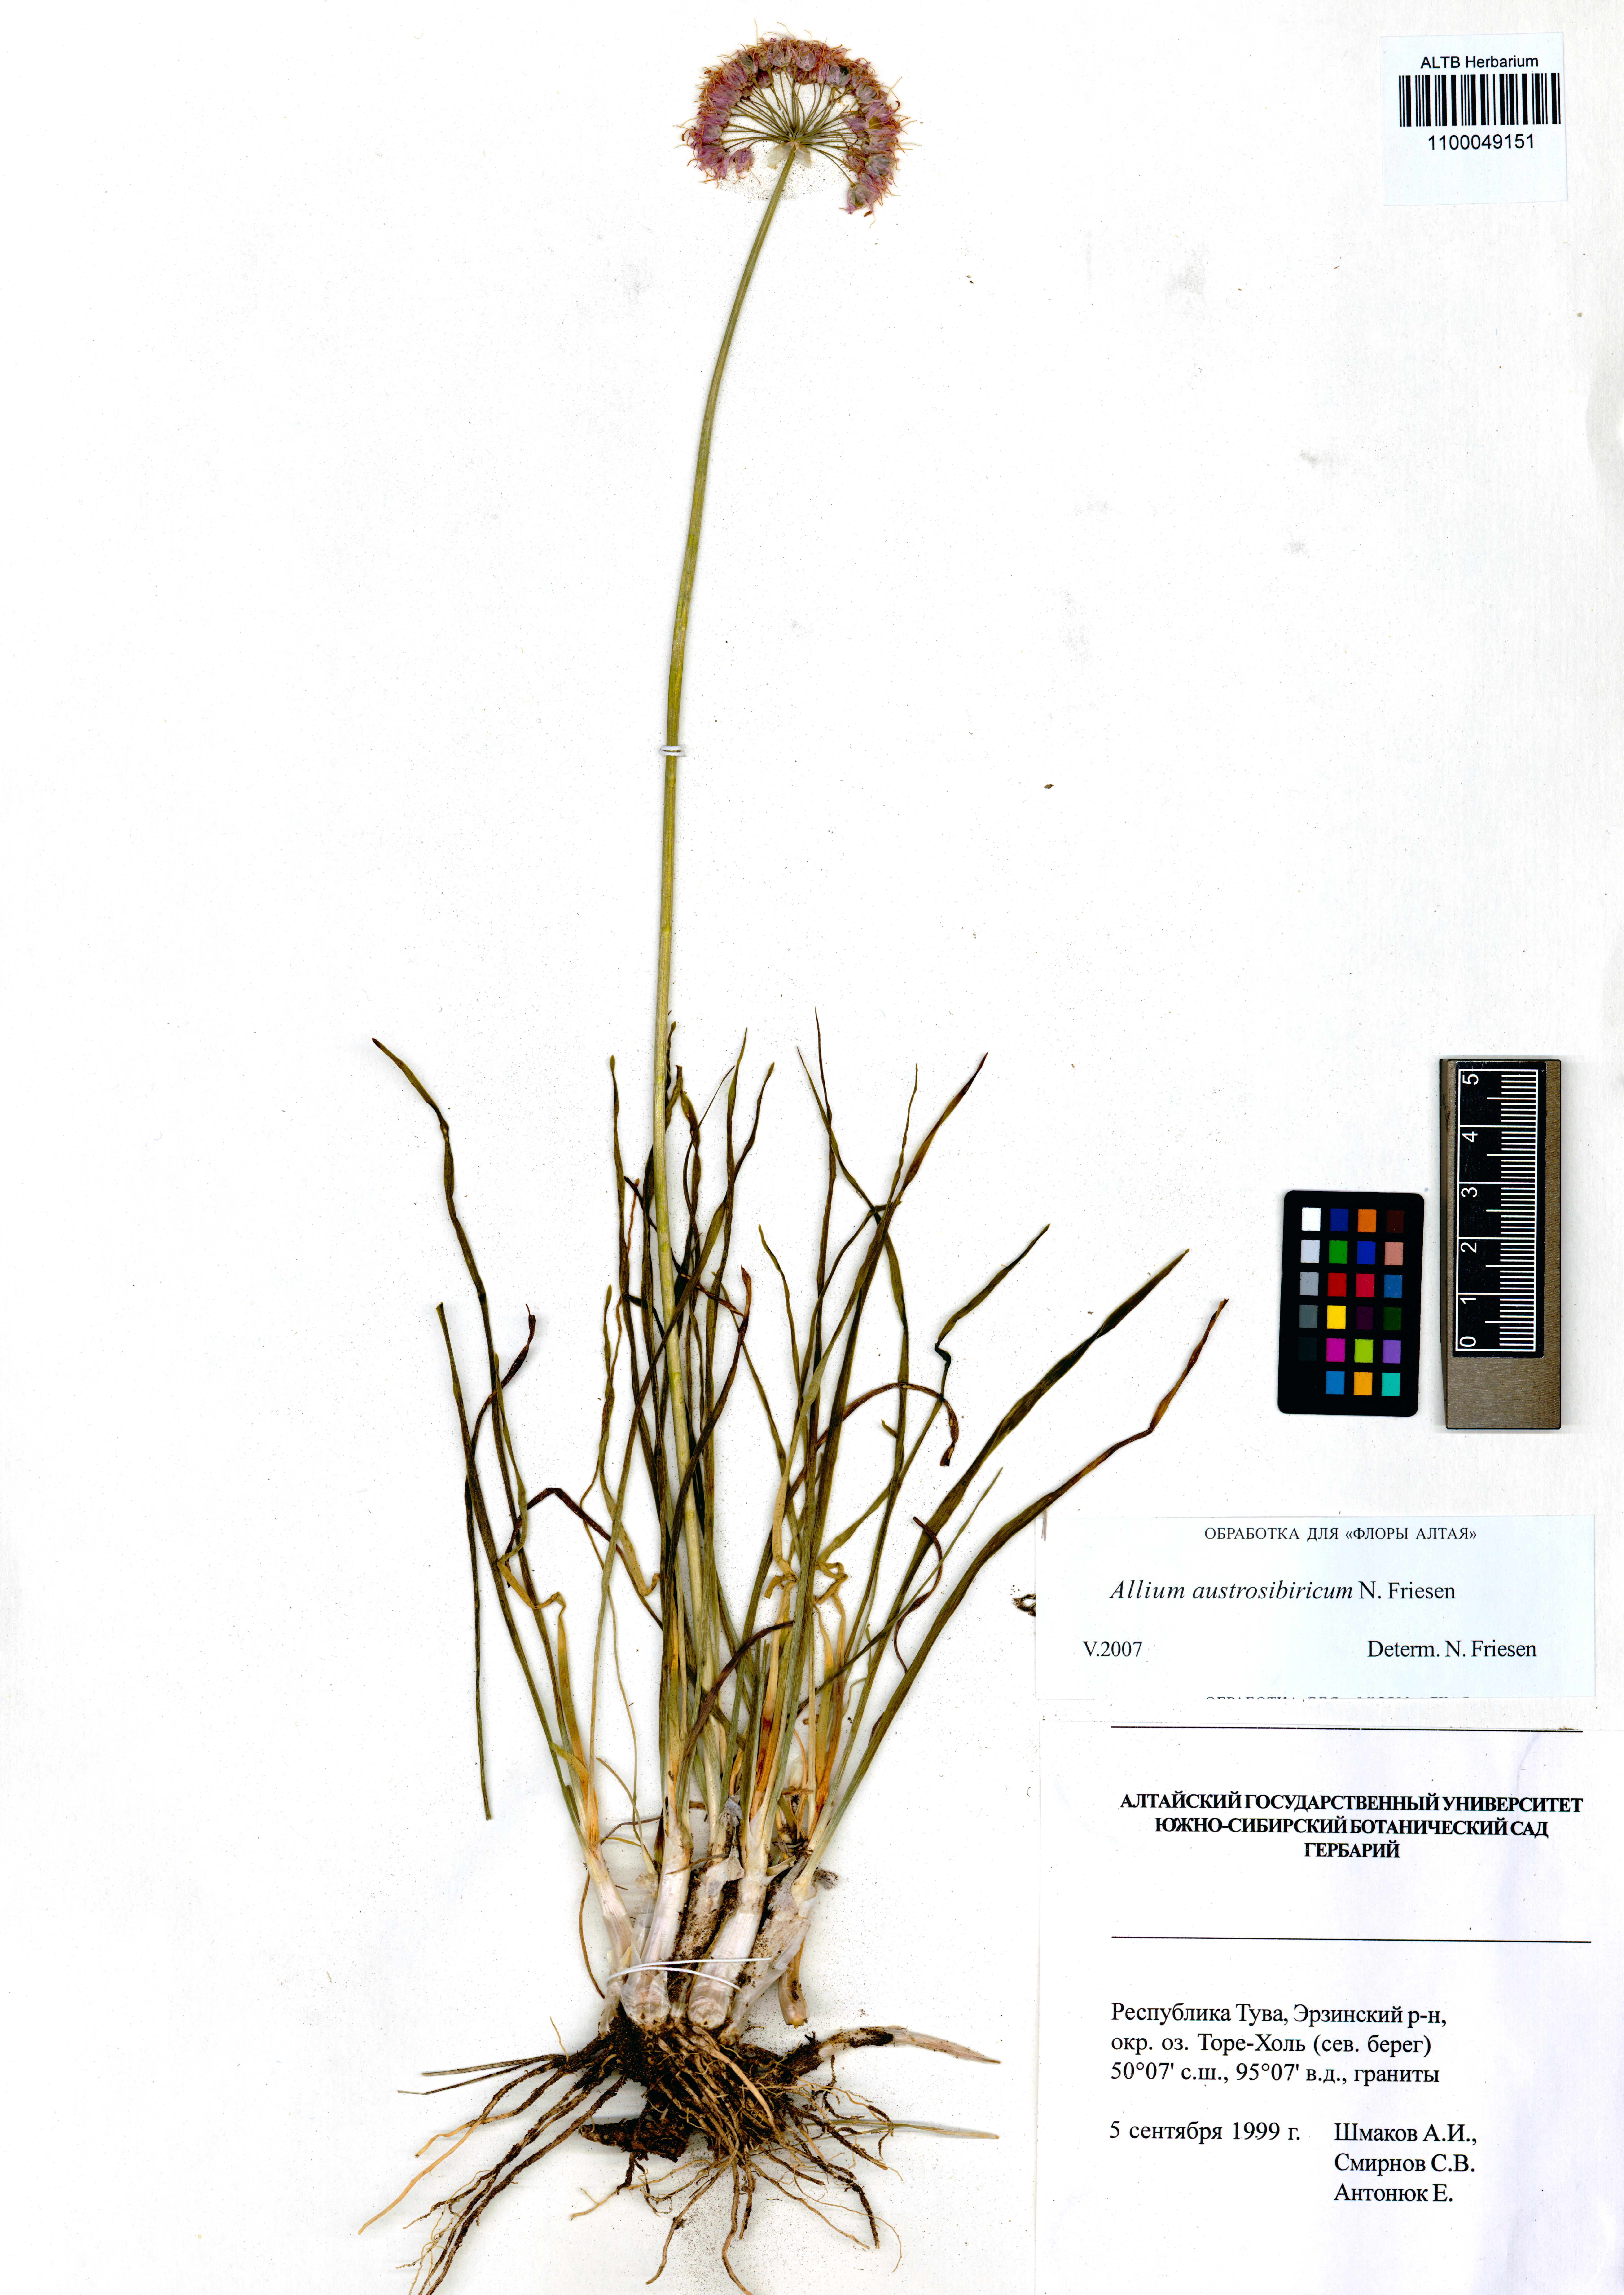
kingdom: Plantae
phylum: Tracheophyta
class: Liliopsida
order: Asparagales
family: Amaryllidaceae
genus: Allium
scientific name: Allium austrosibiricum
